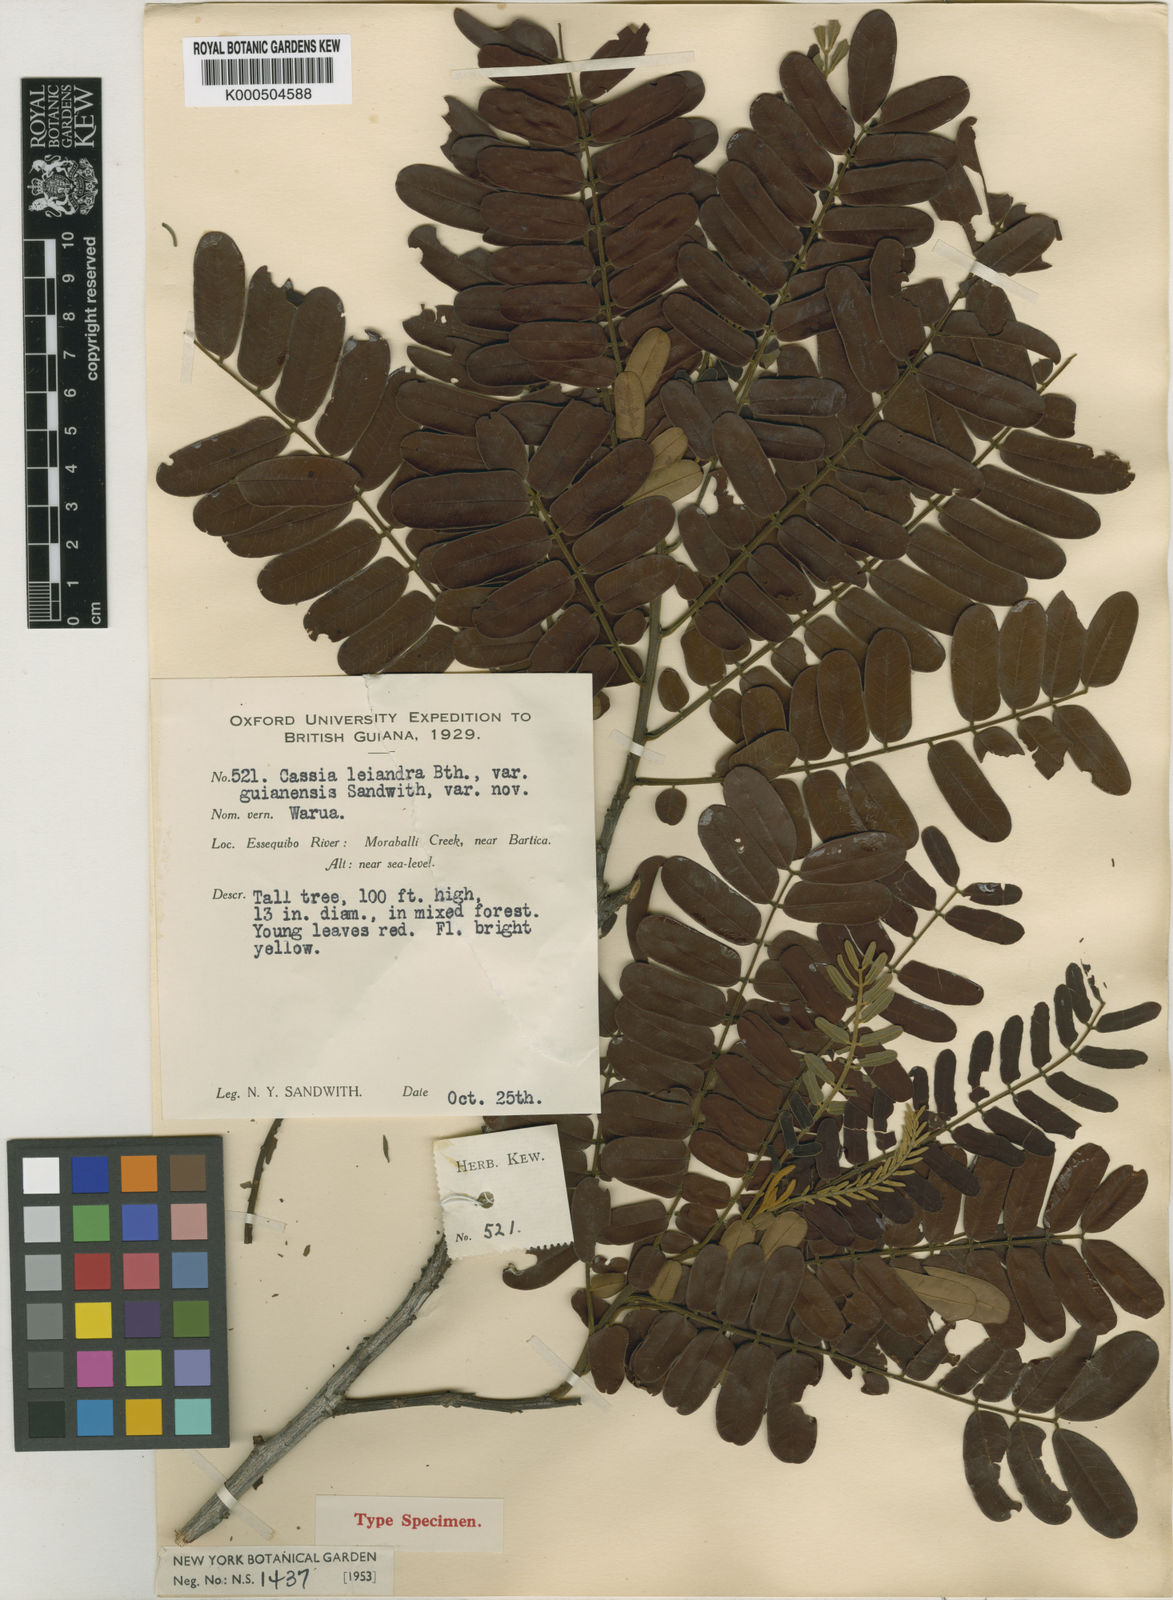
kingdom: Plantae
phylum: Tracheophyta
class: Magnoliopsida
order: Fabales
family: Fabaceae
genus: Cassia
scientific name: Cassia cowanii
